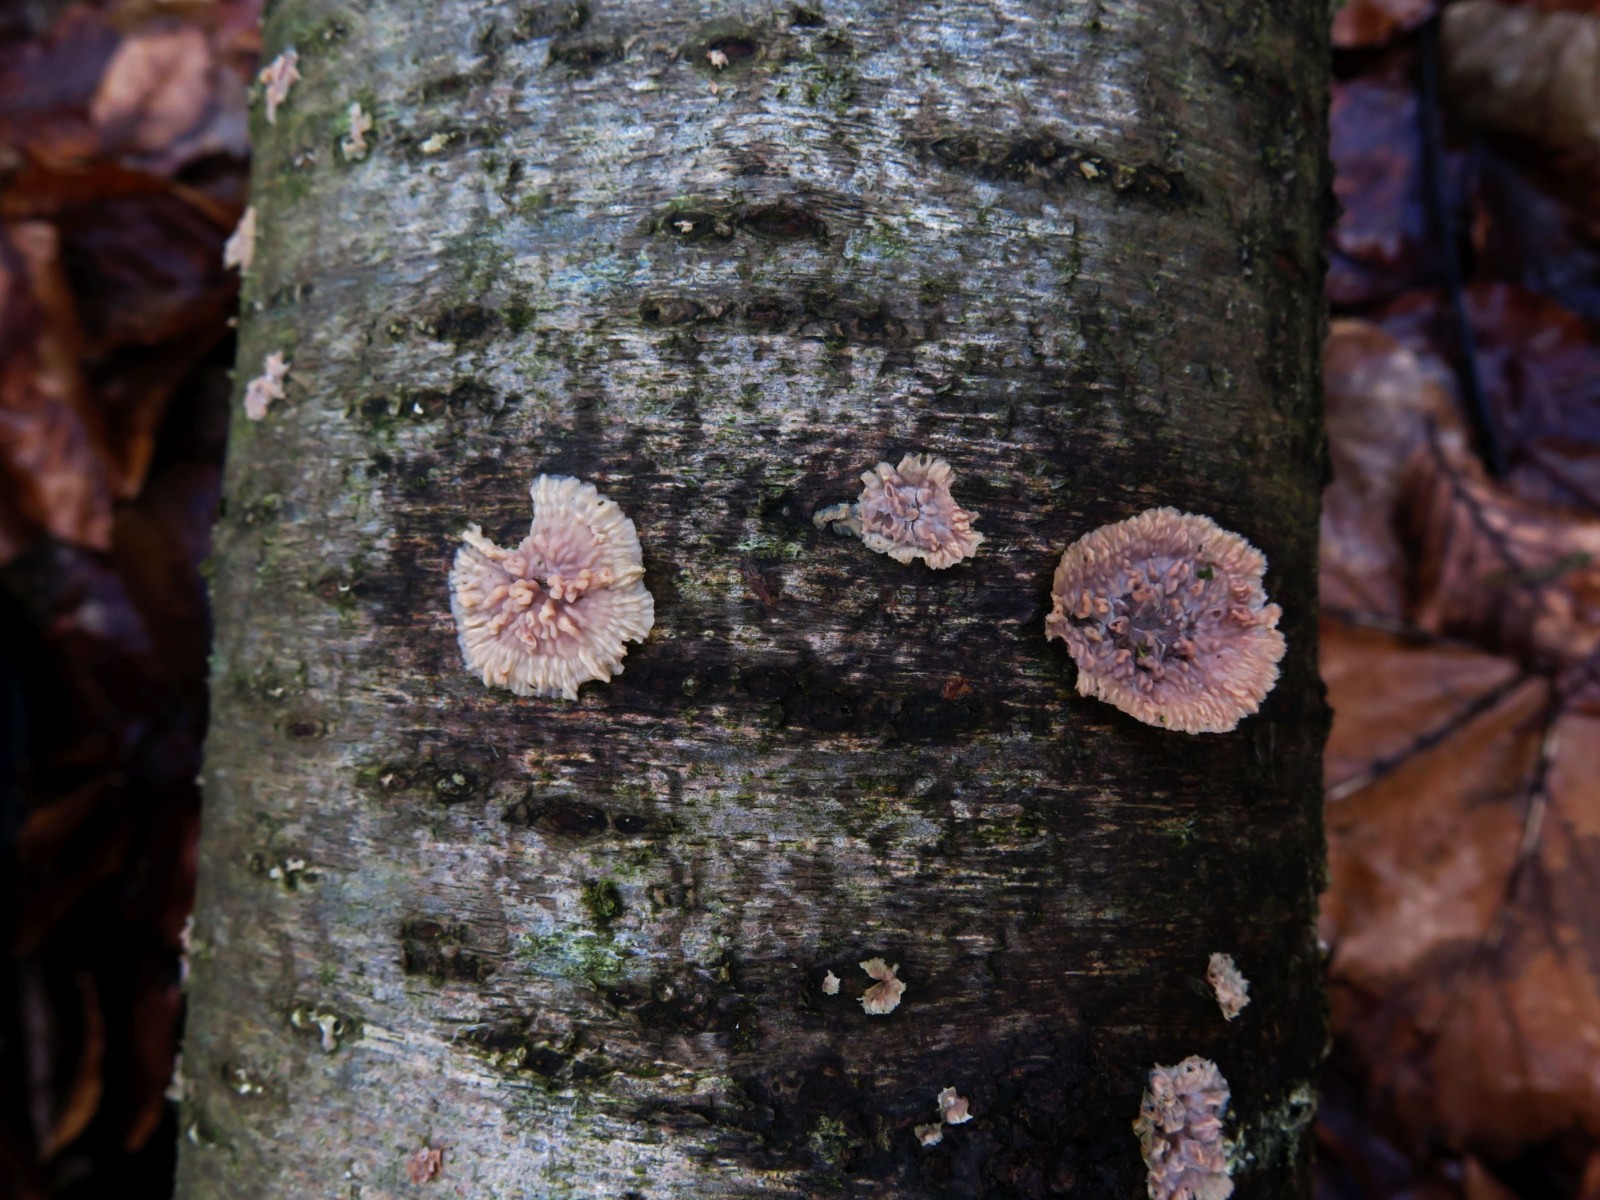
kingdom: Fungi
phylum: Basidiomycota
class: Agaricomycetes
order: Polyporales
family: Meruliaceae
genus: Phlebia
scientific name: Phlebia radiata
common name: stråle-åresvamp
